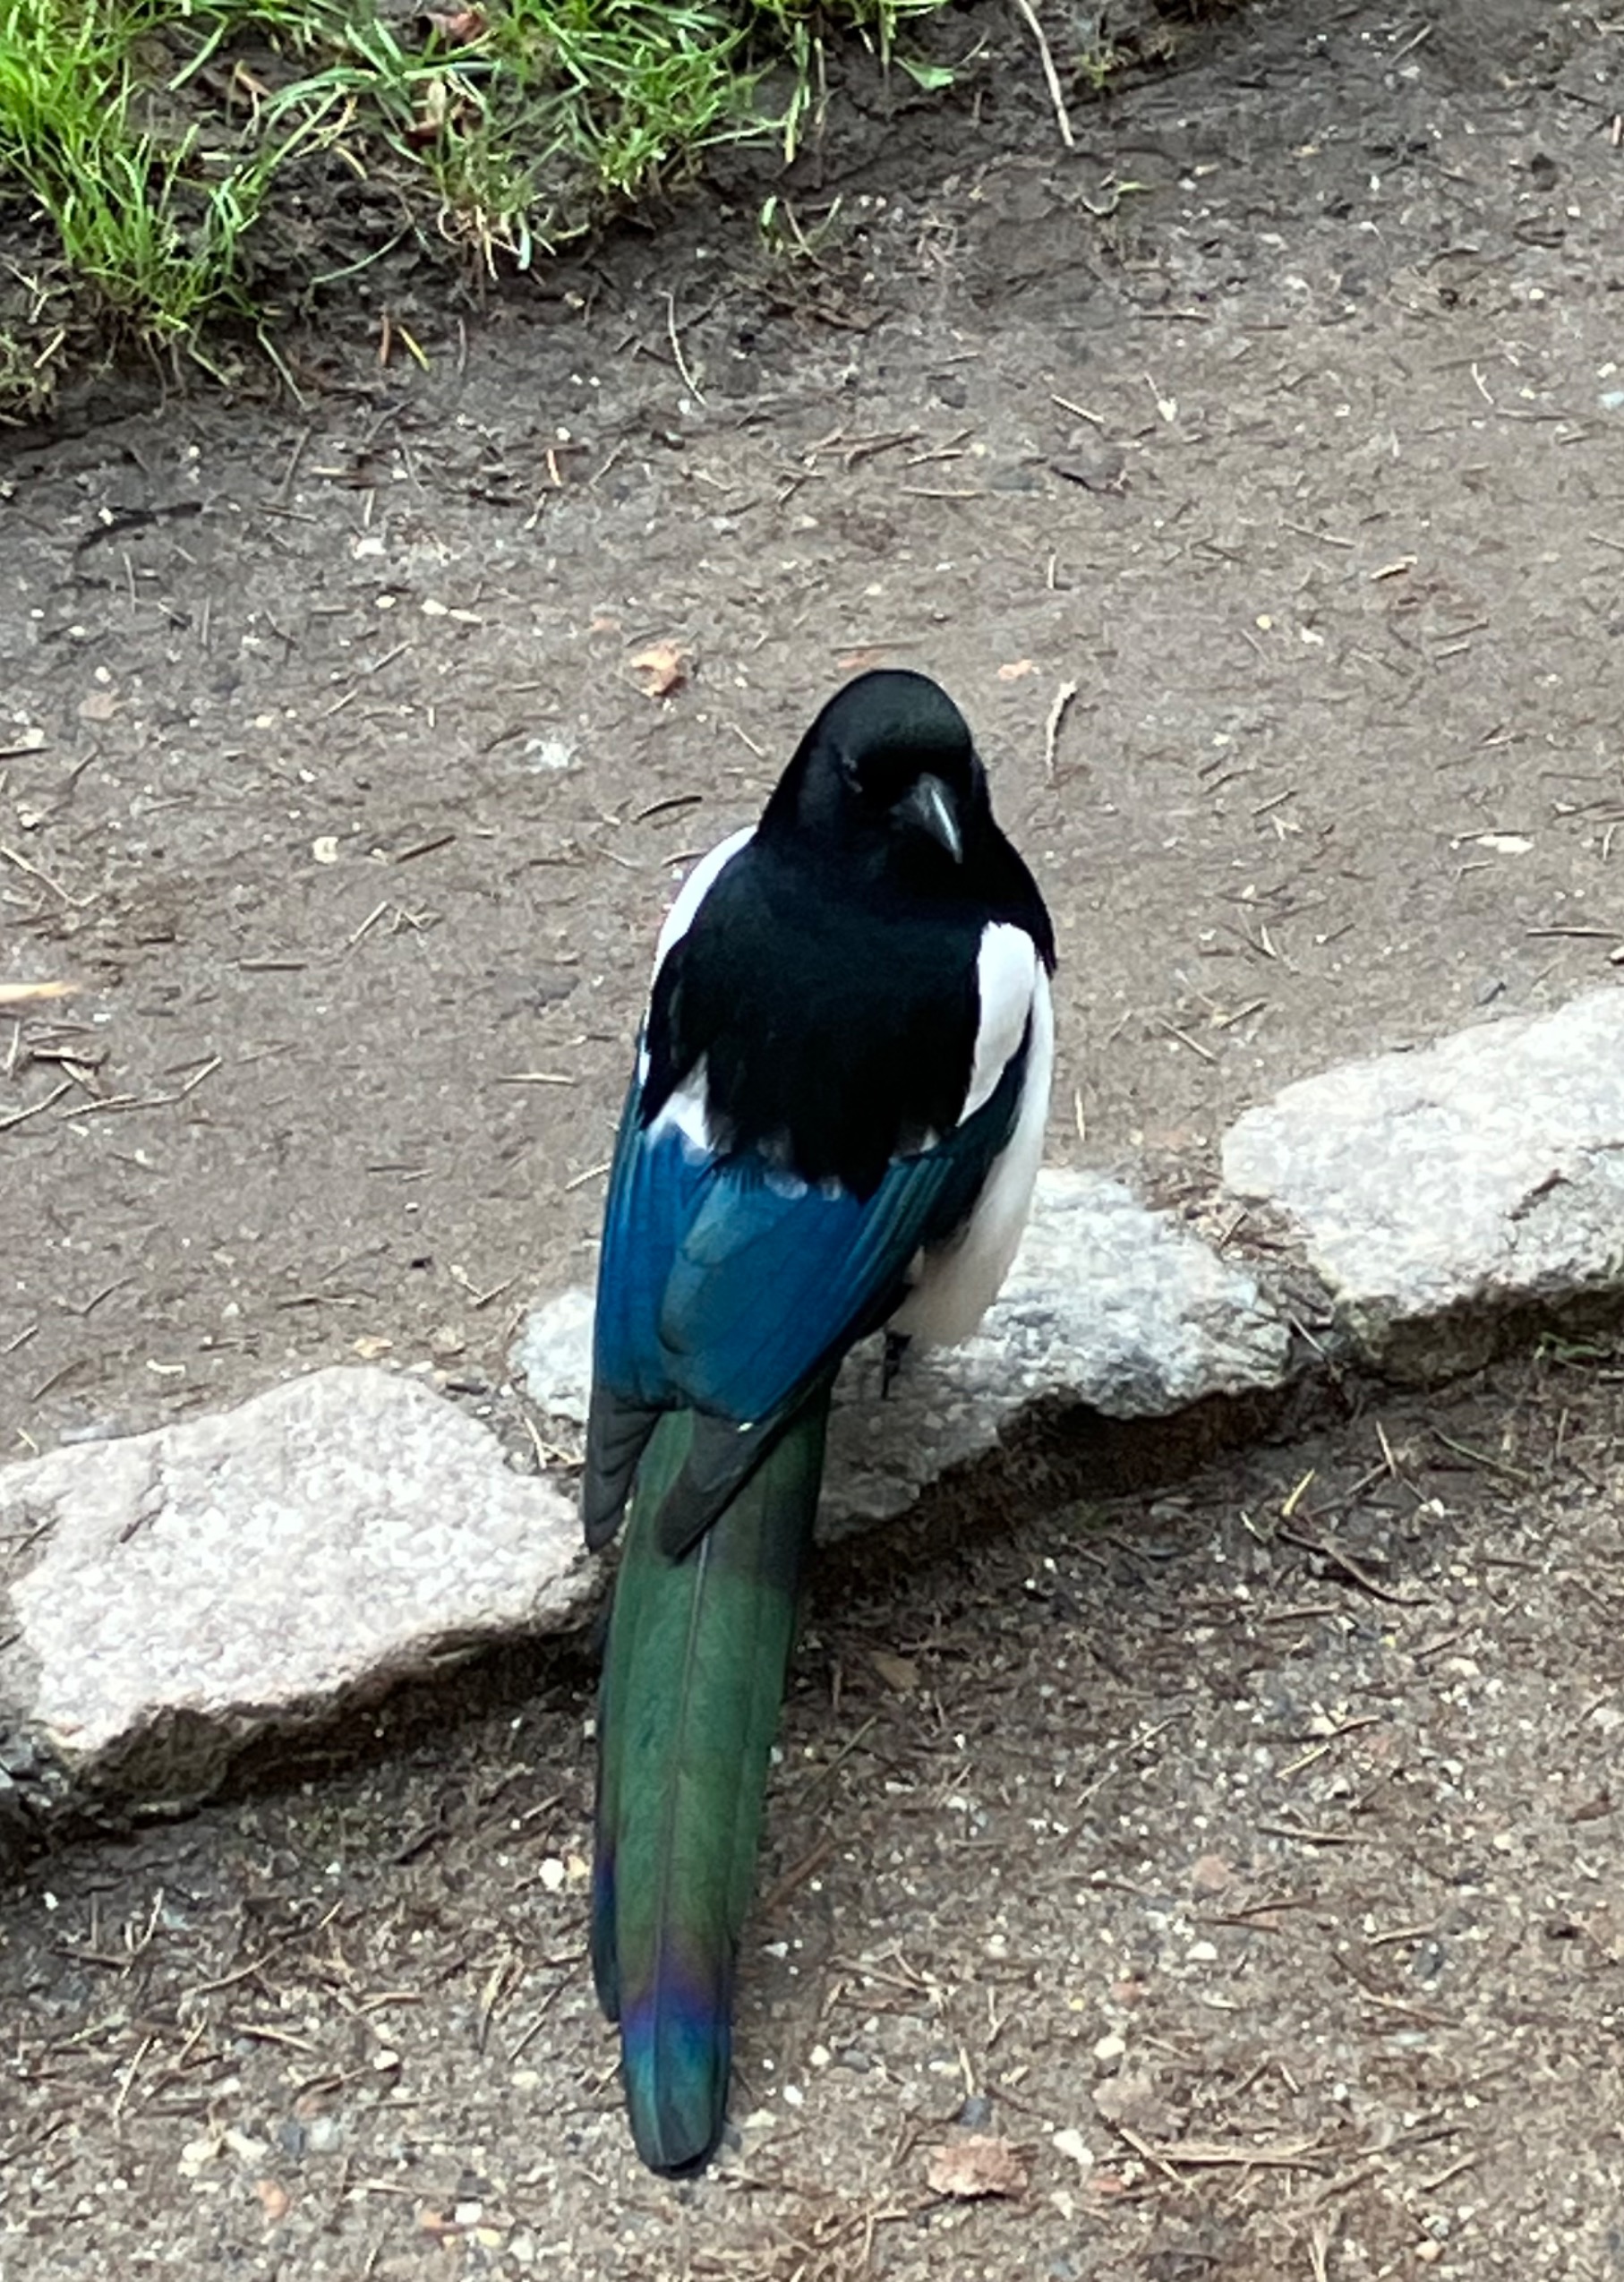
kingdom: Animalia
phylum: Chordata
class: Aves
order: Passeriformes
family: Corvidae
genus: Pica
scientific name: Pica pica
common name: Husskade
